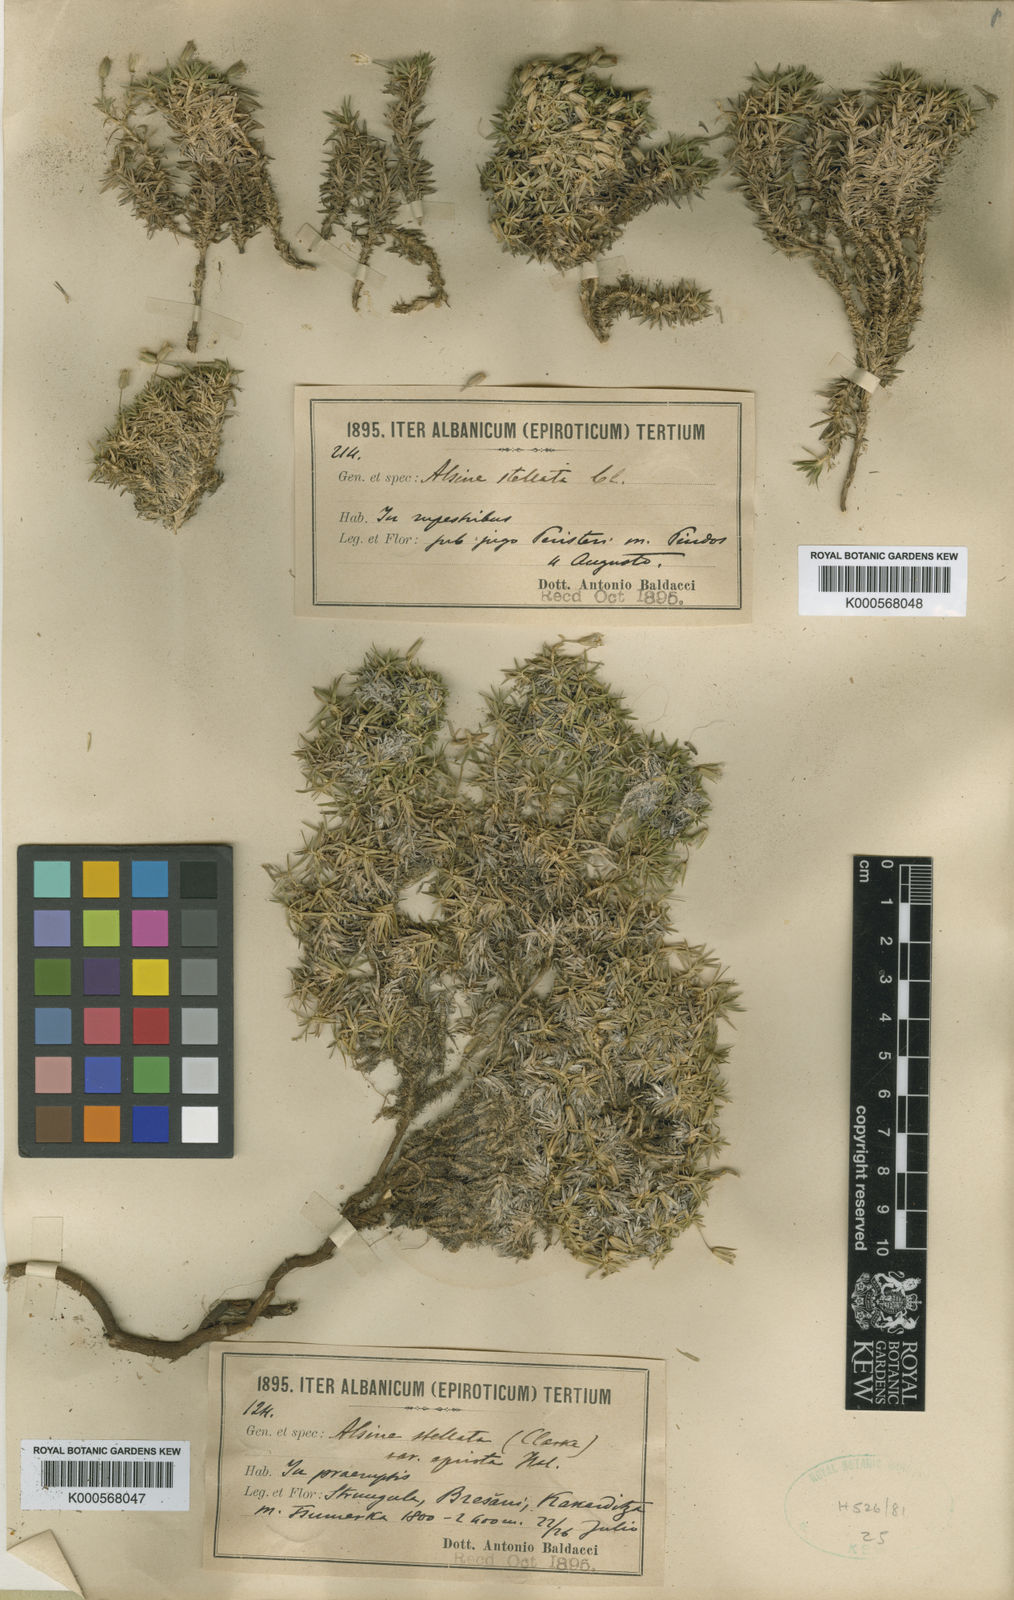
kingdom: Plantae
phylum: Tracheophyta
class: Magnoliopsida
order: Caryophyllales
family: Caryophyllaceae
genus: Mcneillia
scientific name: Mcneillia stellata
